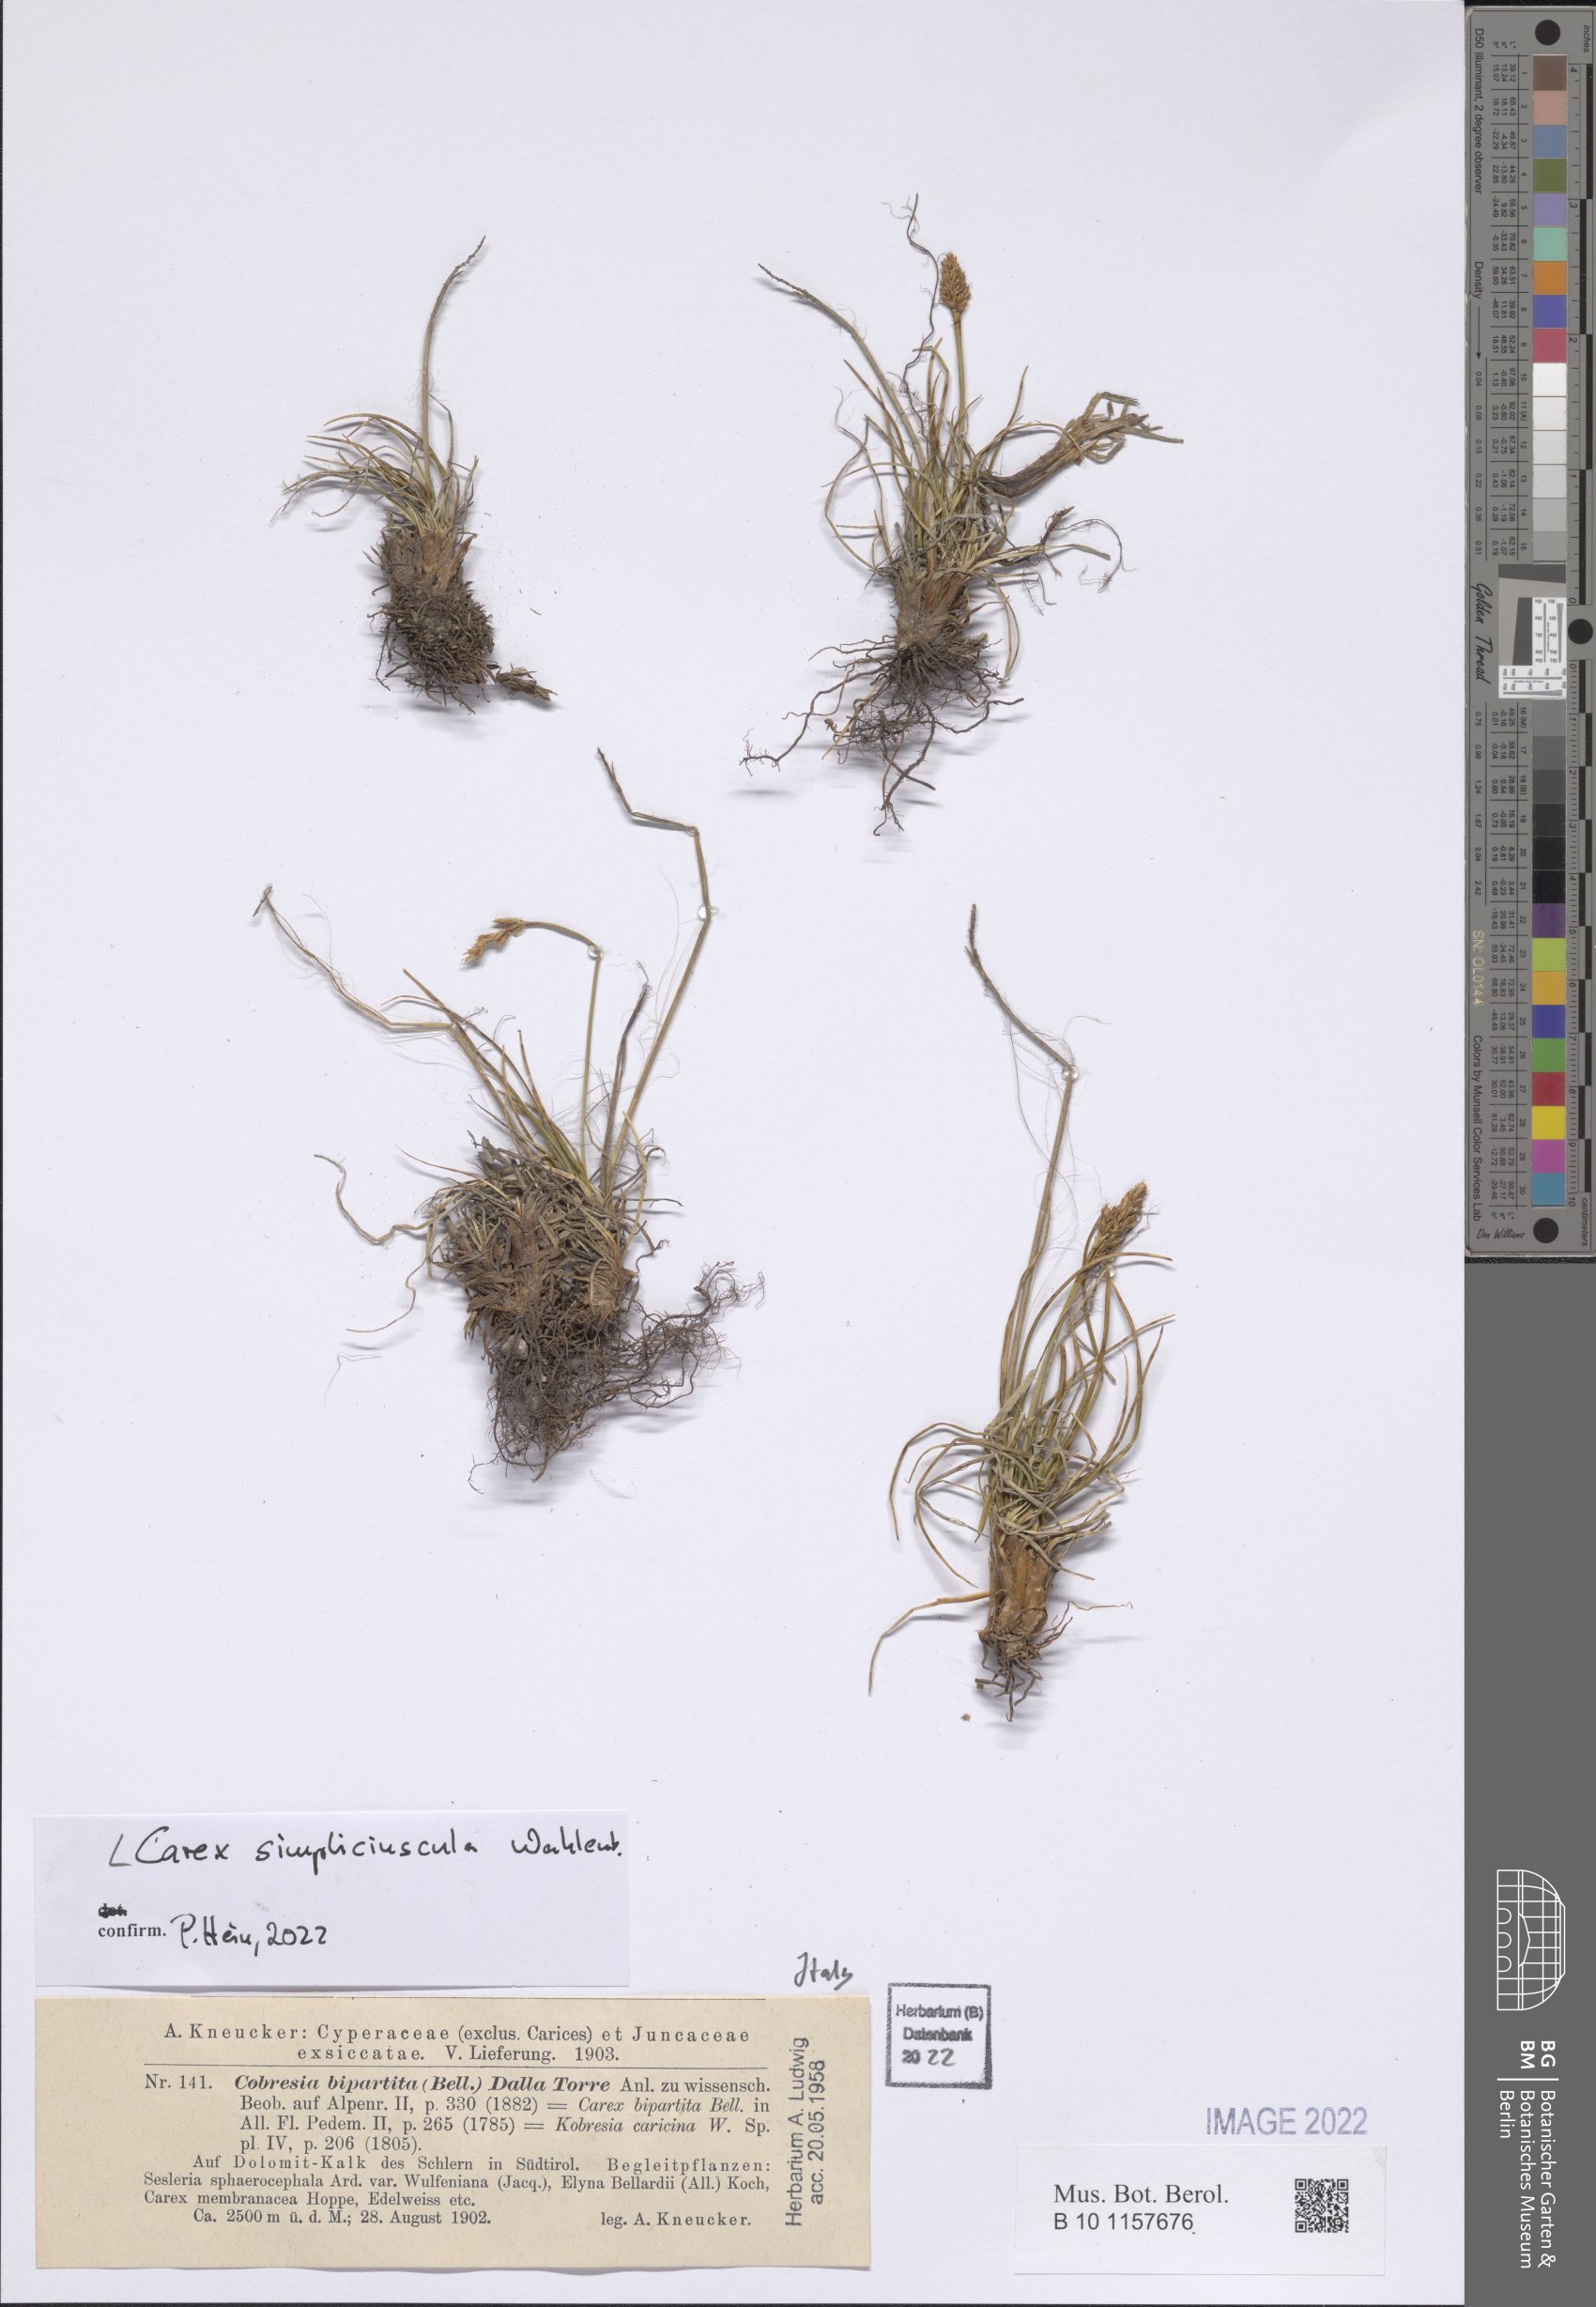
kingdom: Plantae
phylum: Tracheophyta
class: Liliopsida
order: Poales
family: Cyperaceae
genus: Carex
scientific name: Carex simpliciuscula
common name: Simple bog sedge
